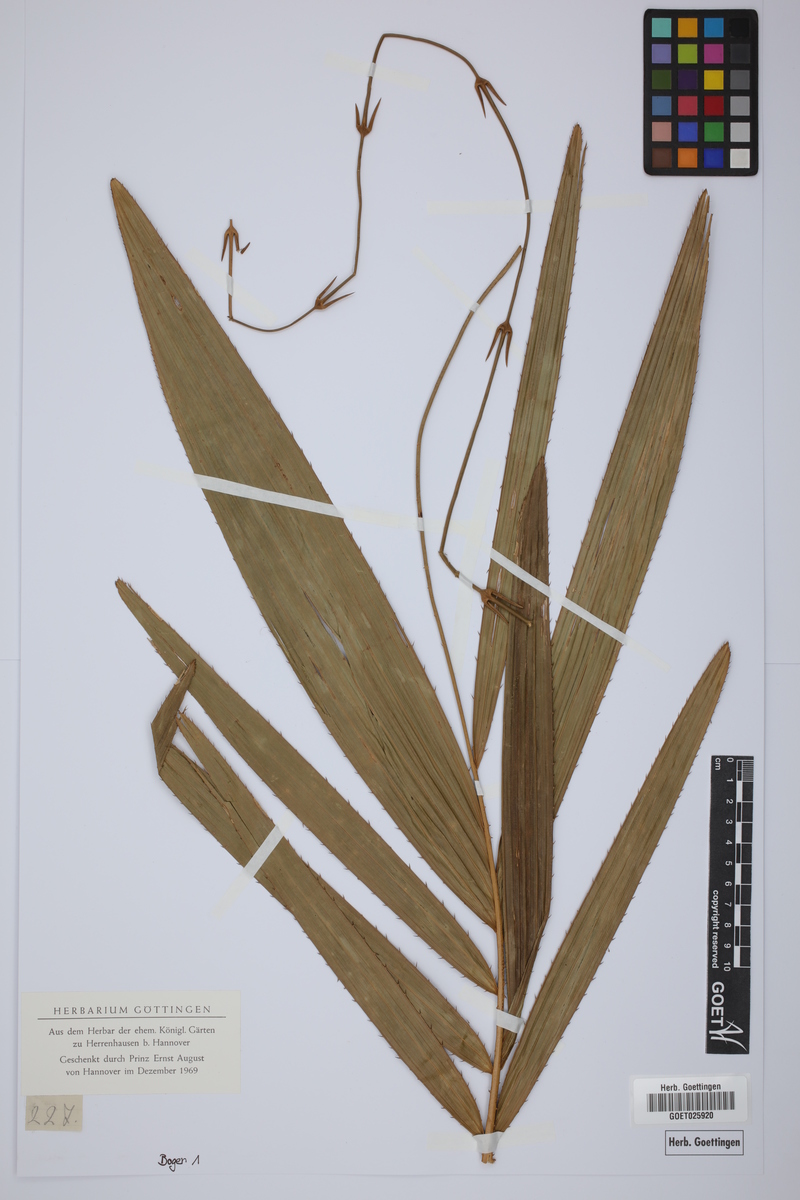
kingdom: Plantae
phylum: Tracheophyta
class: Liliopsida
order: Arecales
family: Arecaceae
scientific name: Arecaceae
